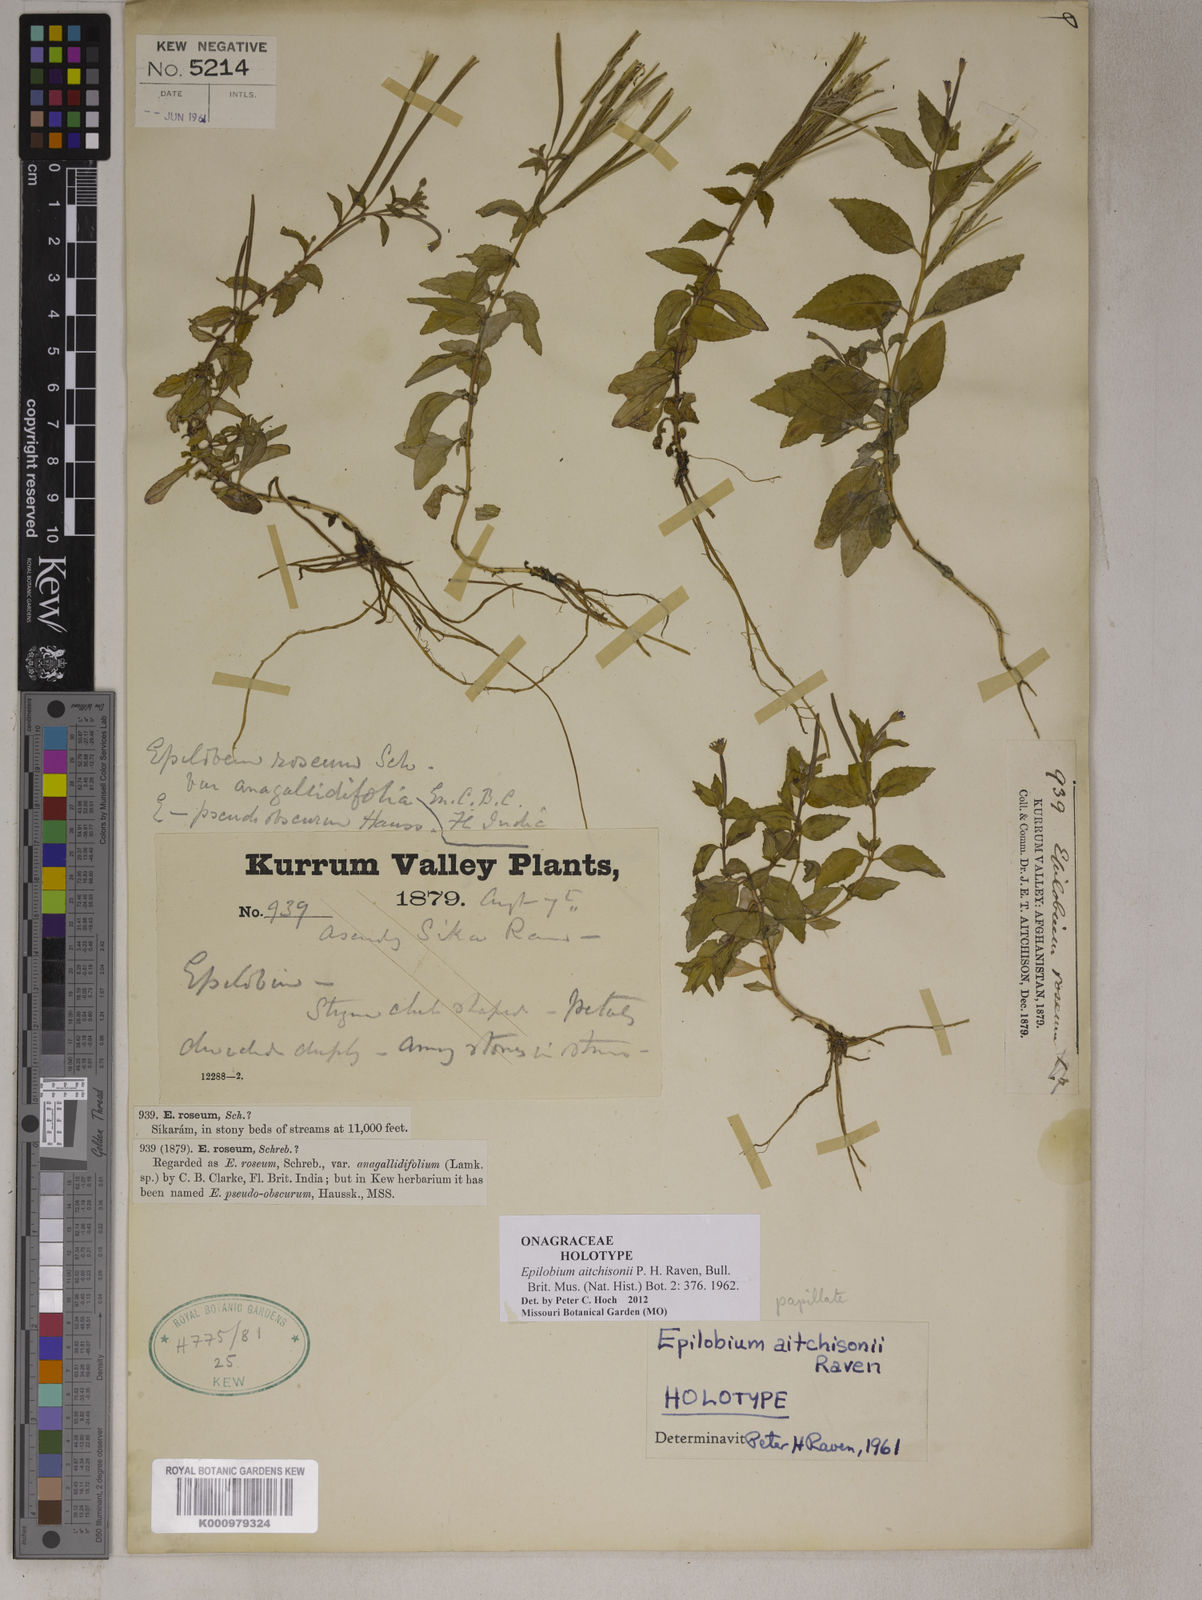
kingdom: Plantae
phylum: Tracheophyta
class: Magnoliopsida
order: Myrtales
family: Onagraceae
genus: Epilobium
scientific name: Epilobium aitchisonii
